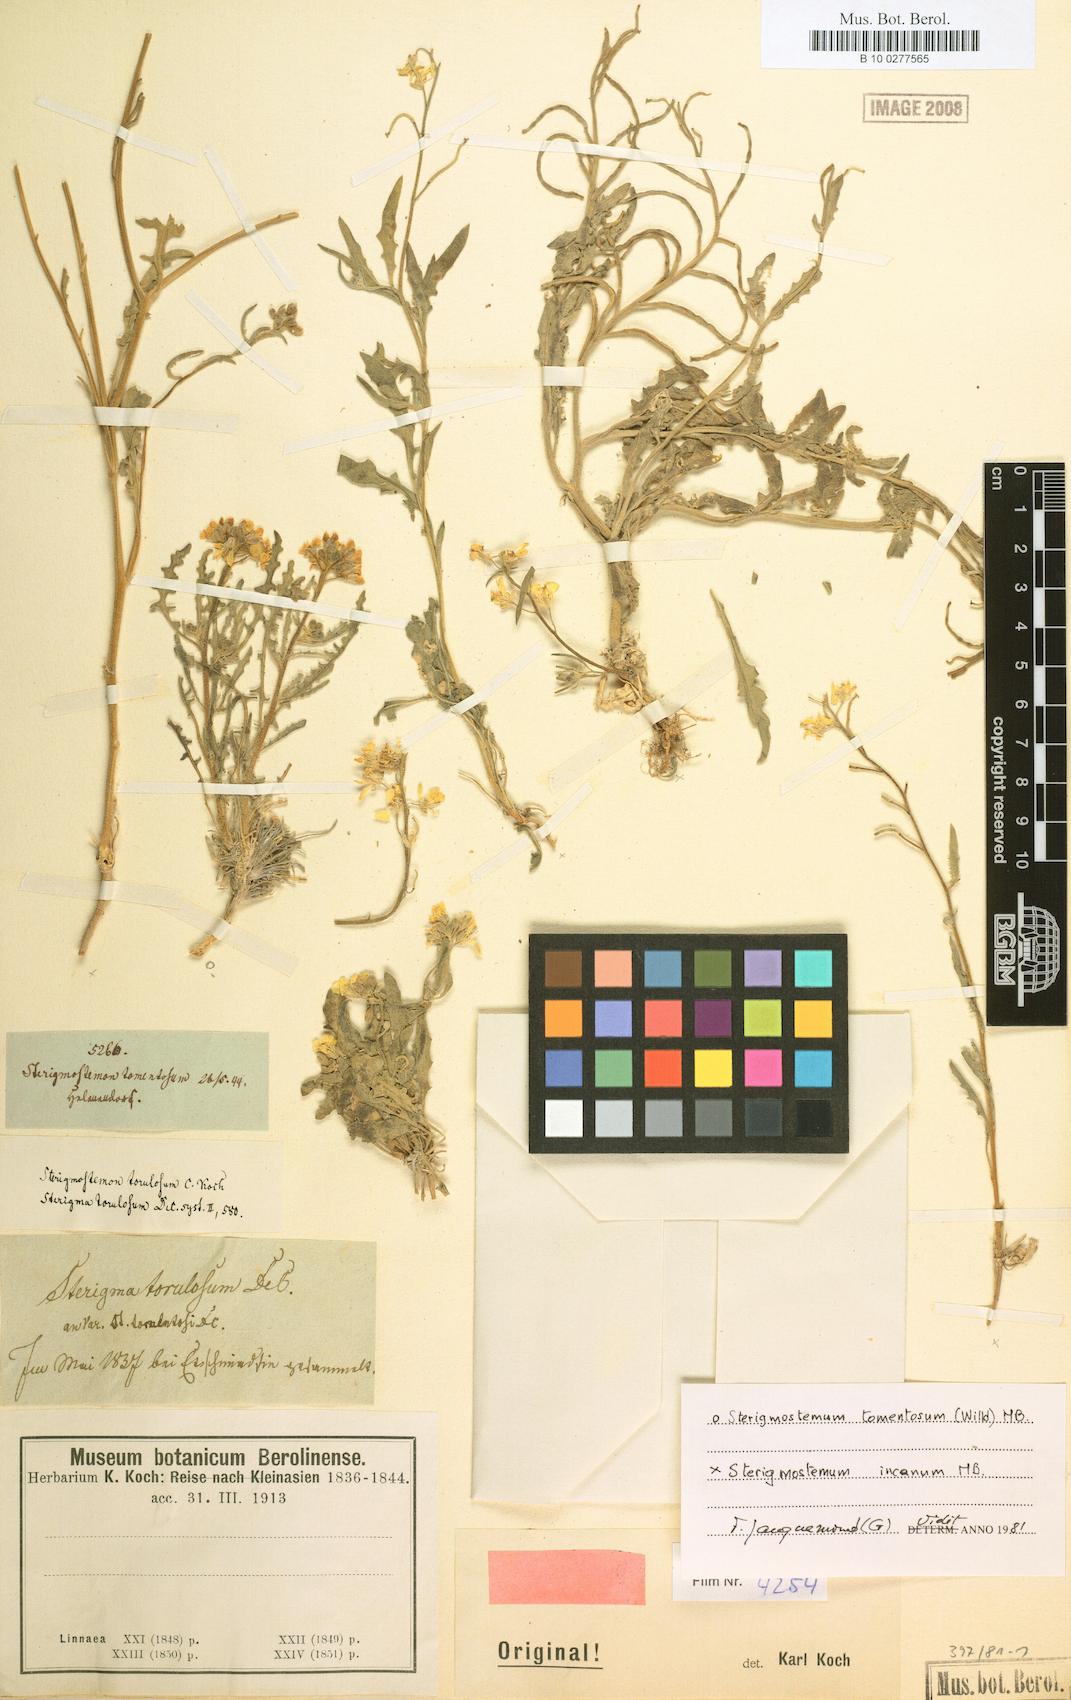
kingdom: Plantae
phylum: Tracheophyta
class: Magnoliopsida
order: Brassicales
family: Brassicaceae
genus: Sterigmostemum
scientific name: Sterigmostemum incanum
